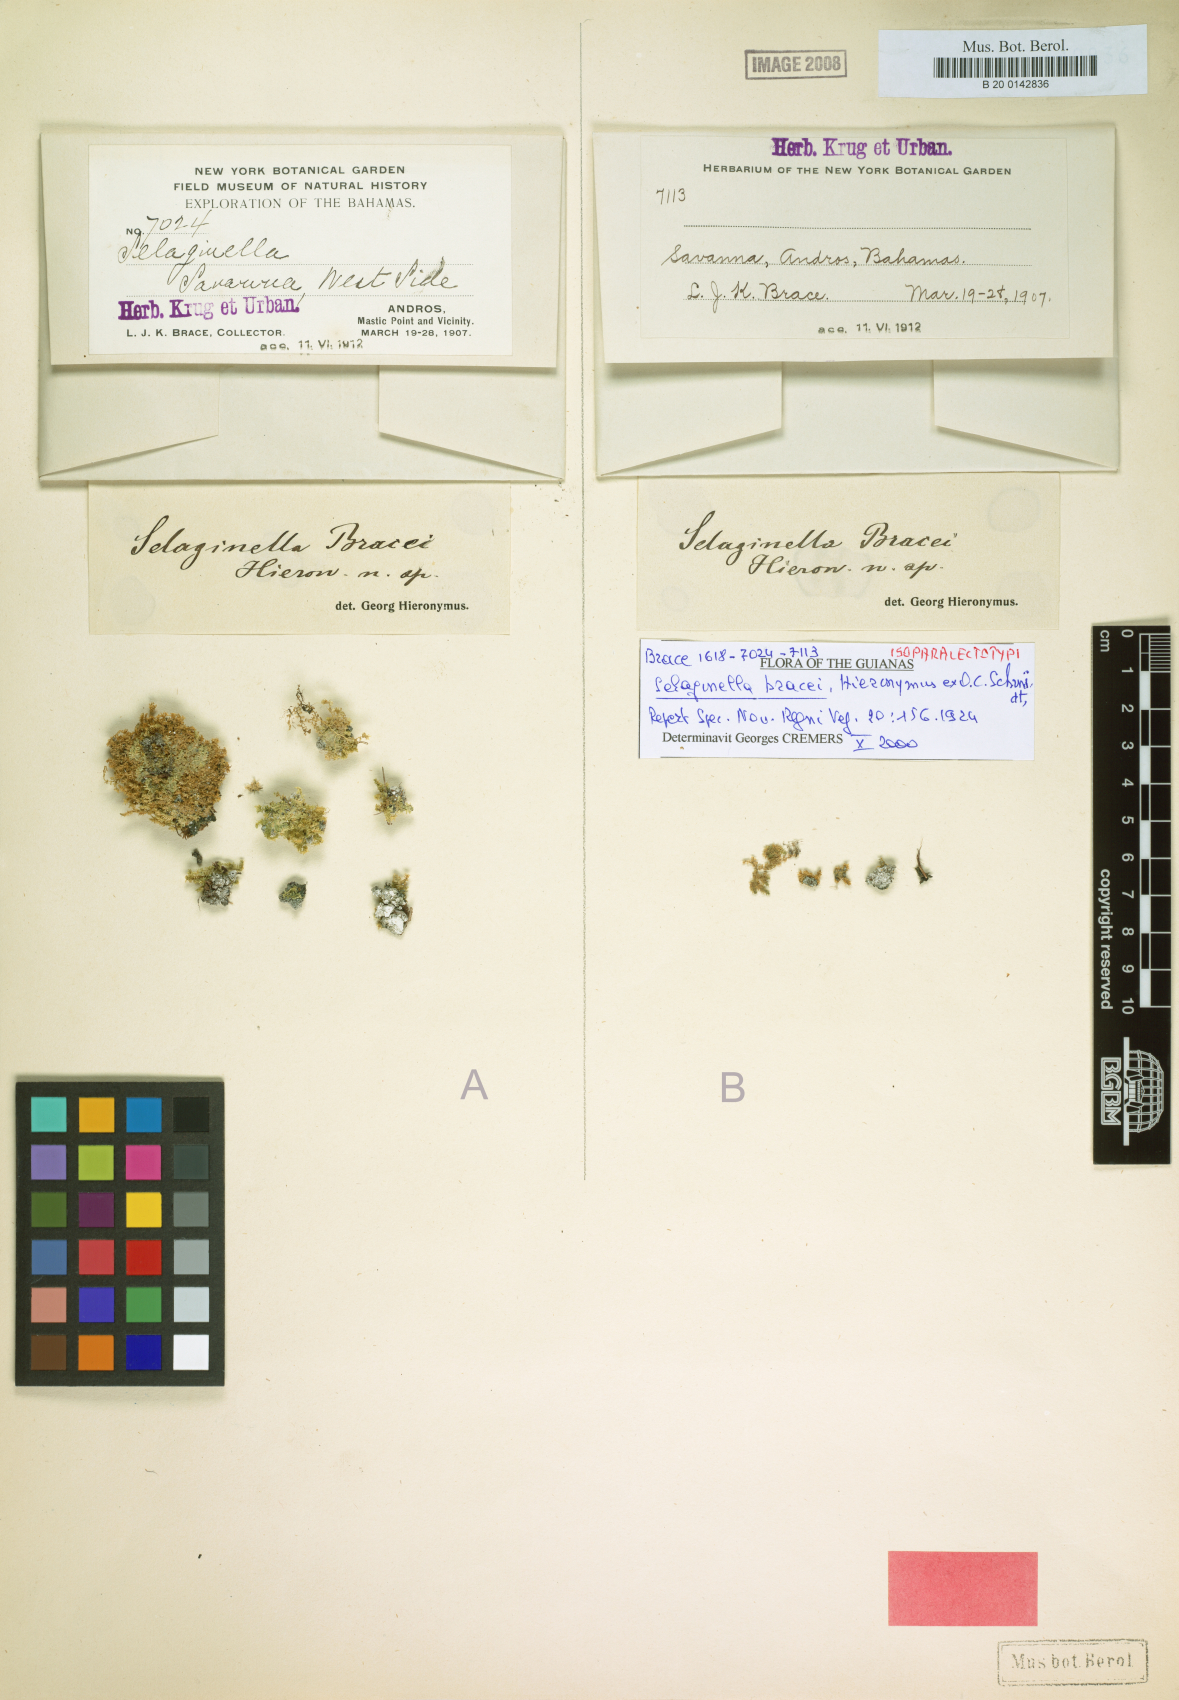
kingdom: Plantae
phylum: Tracheophyta
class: Lycopodiopsida
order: Selaginellales
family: Selaginellaceae
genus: Selaginella
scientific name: Selaginella eatonii
